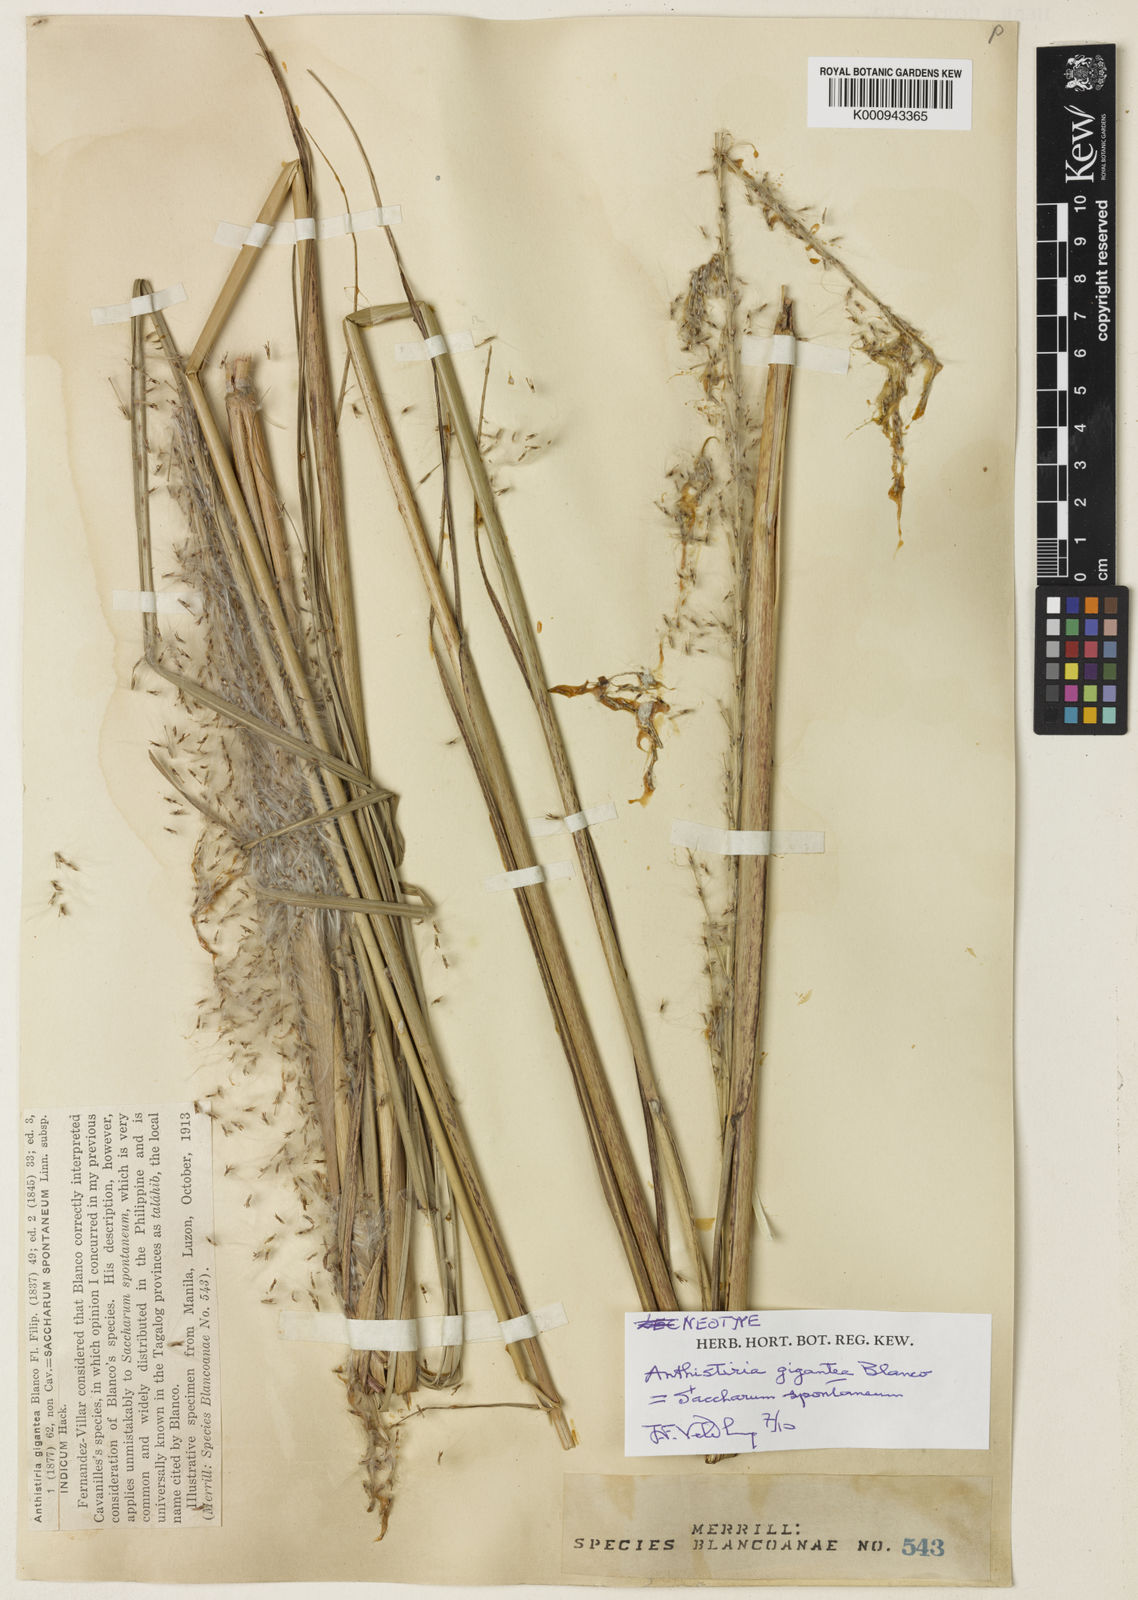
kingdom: Plantae
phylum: Tracheophyta
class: Liliopsida
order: Poales
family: Poaceae
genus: Saccharum
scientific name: Saccharum spontaneum
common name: Wild sugarcane
